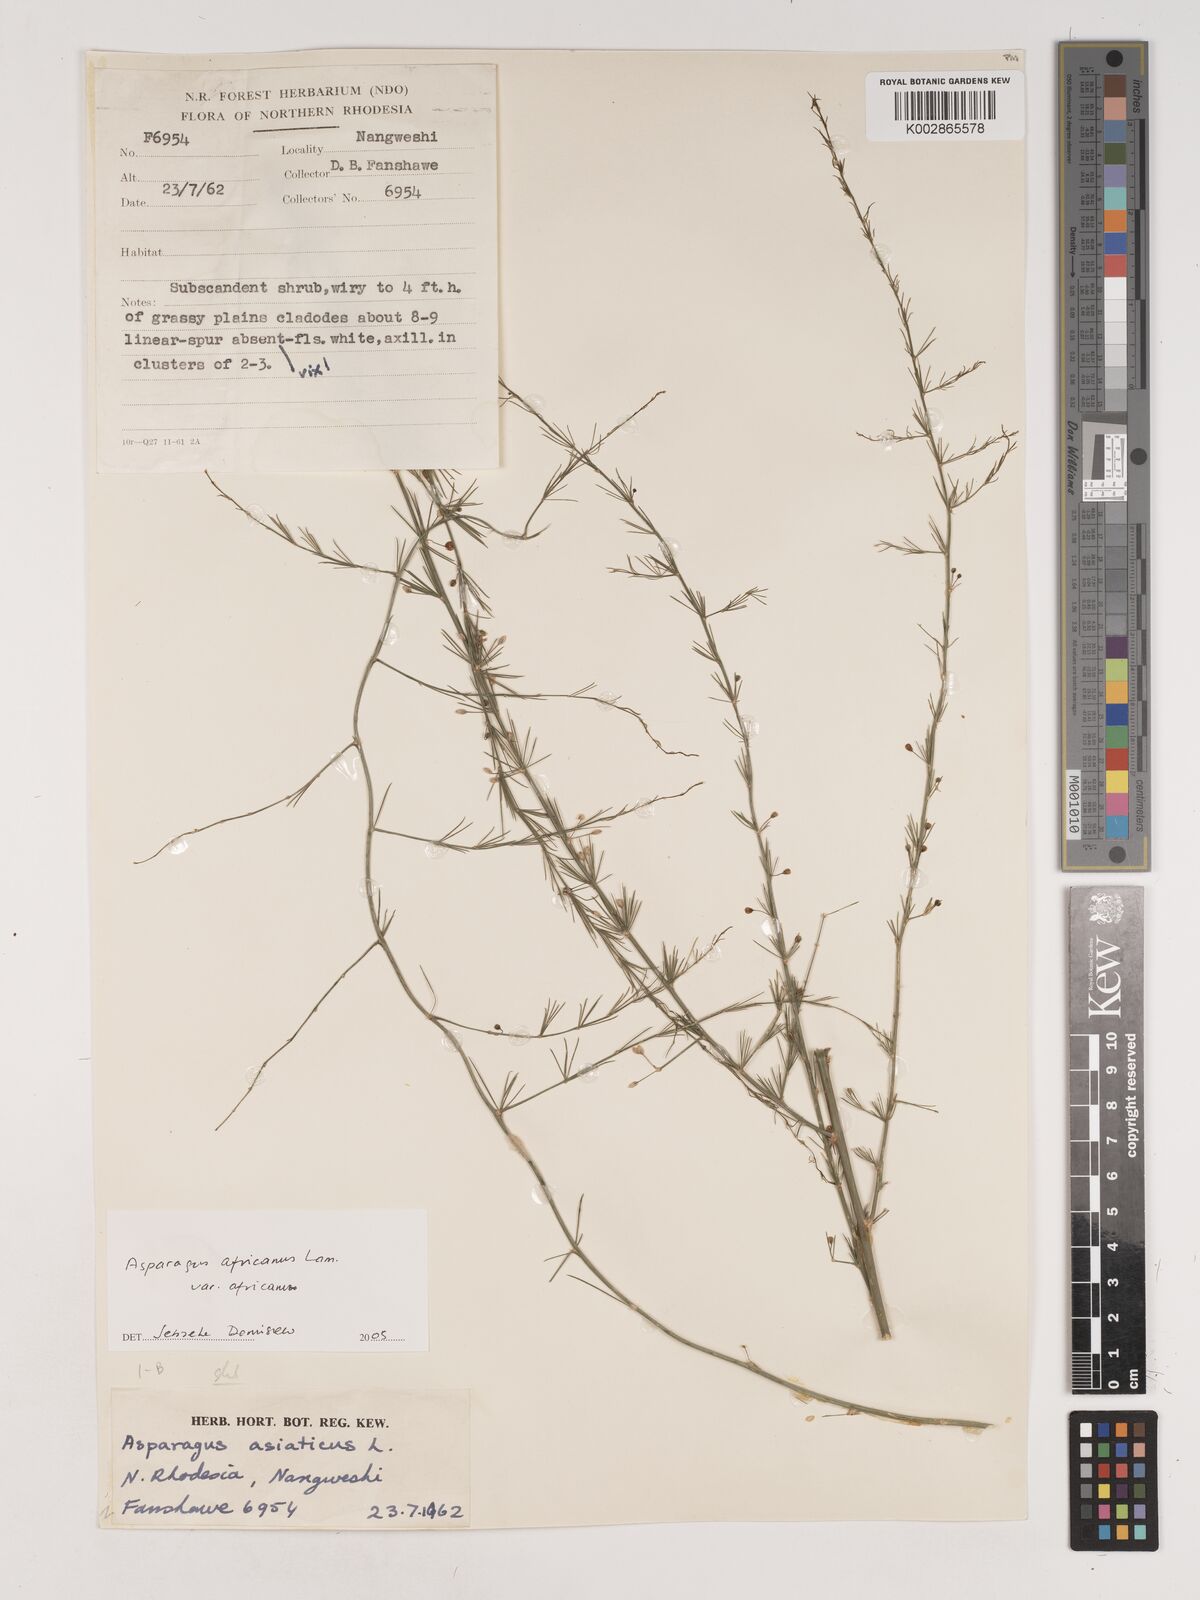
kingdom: Plantae
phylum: Tracheophyta
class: Liliopsida
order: Asparagales
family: Asparagaceae
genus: Asparagus
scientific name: Asparagus africanus
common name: Asparagus-fern
